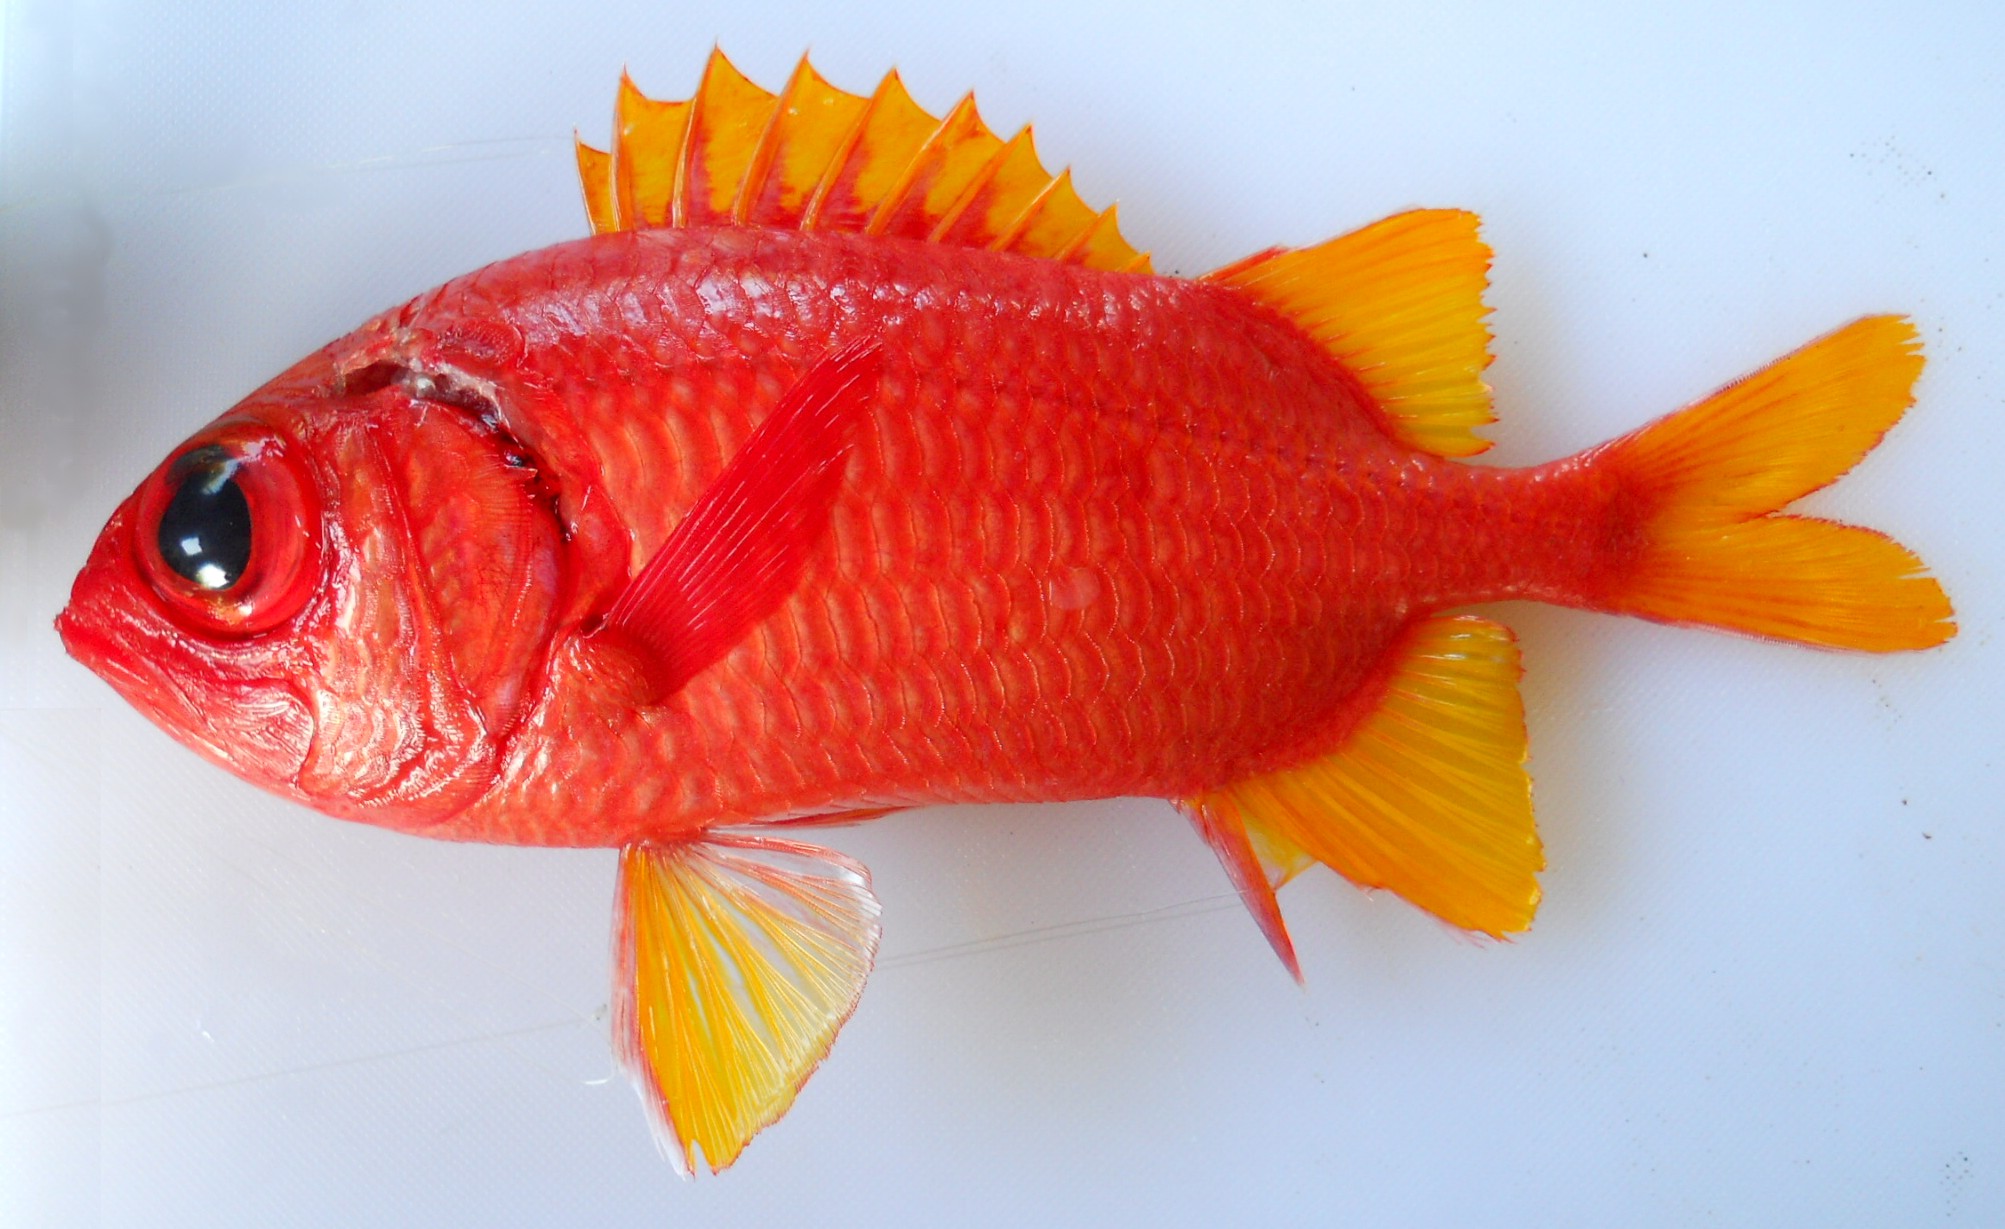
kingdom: Animalia
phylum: Chordata
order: Beryciformes
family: Holocentridae
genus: Myripristis
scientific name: Myripristis chryseres
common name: Golden-finned squirrelfish
